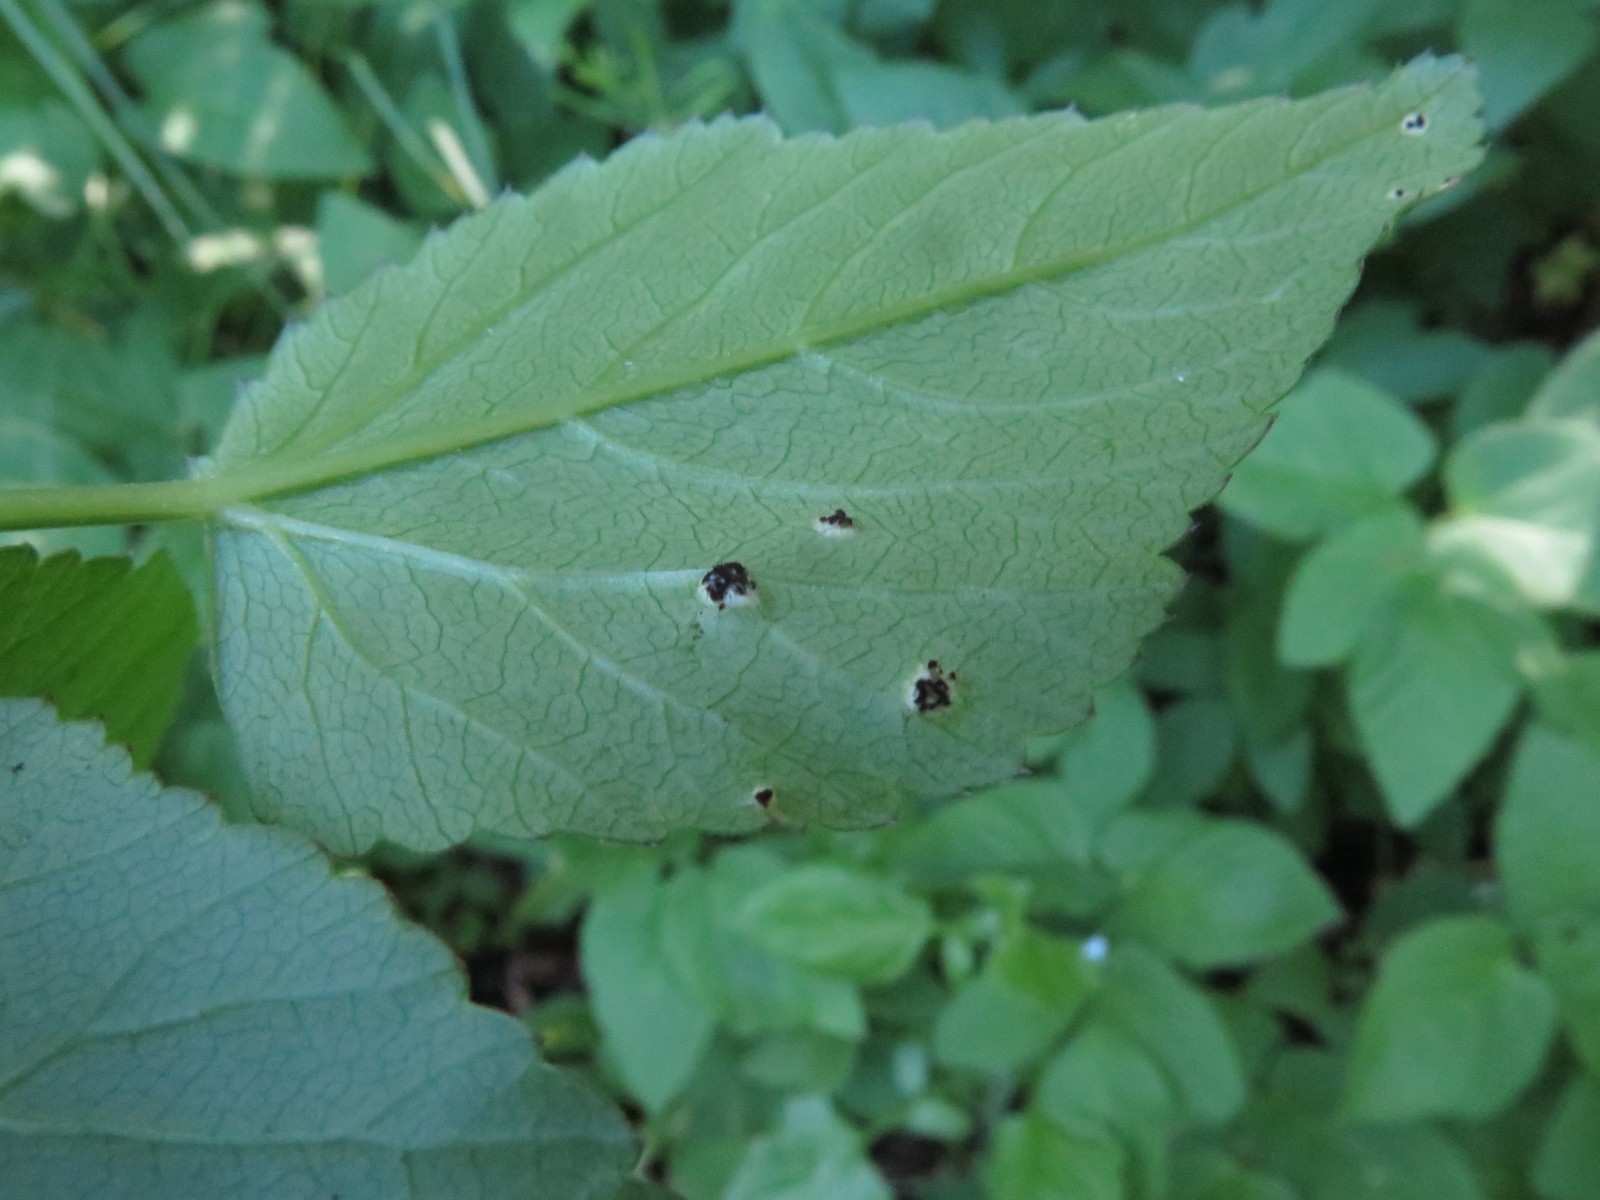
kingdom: Fungi
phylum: Basidiomycota
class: Pucciniomycetes
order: Pucciniales
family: Pucciniaceae
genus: Puccinia
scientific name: Puccinia
